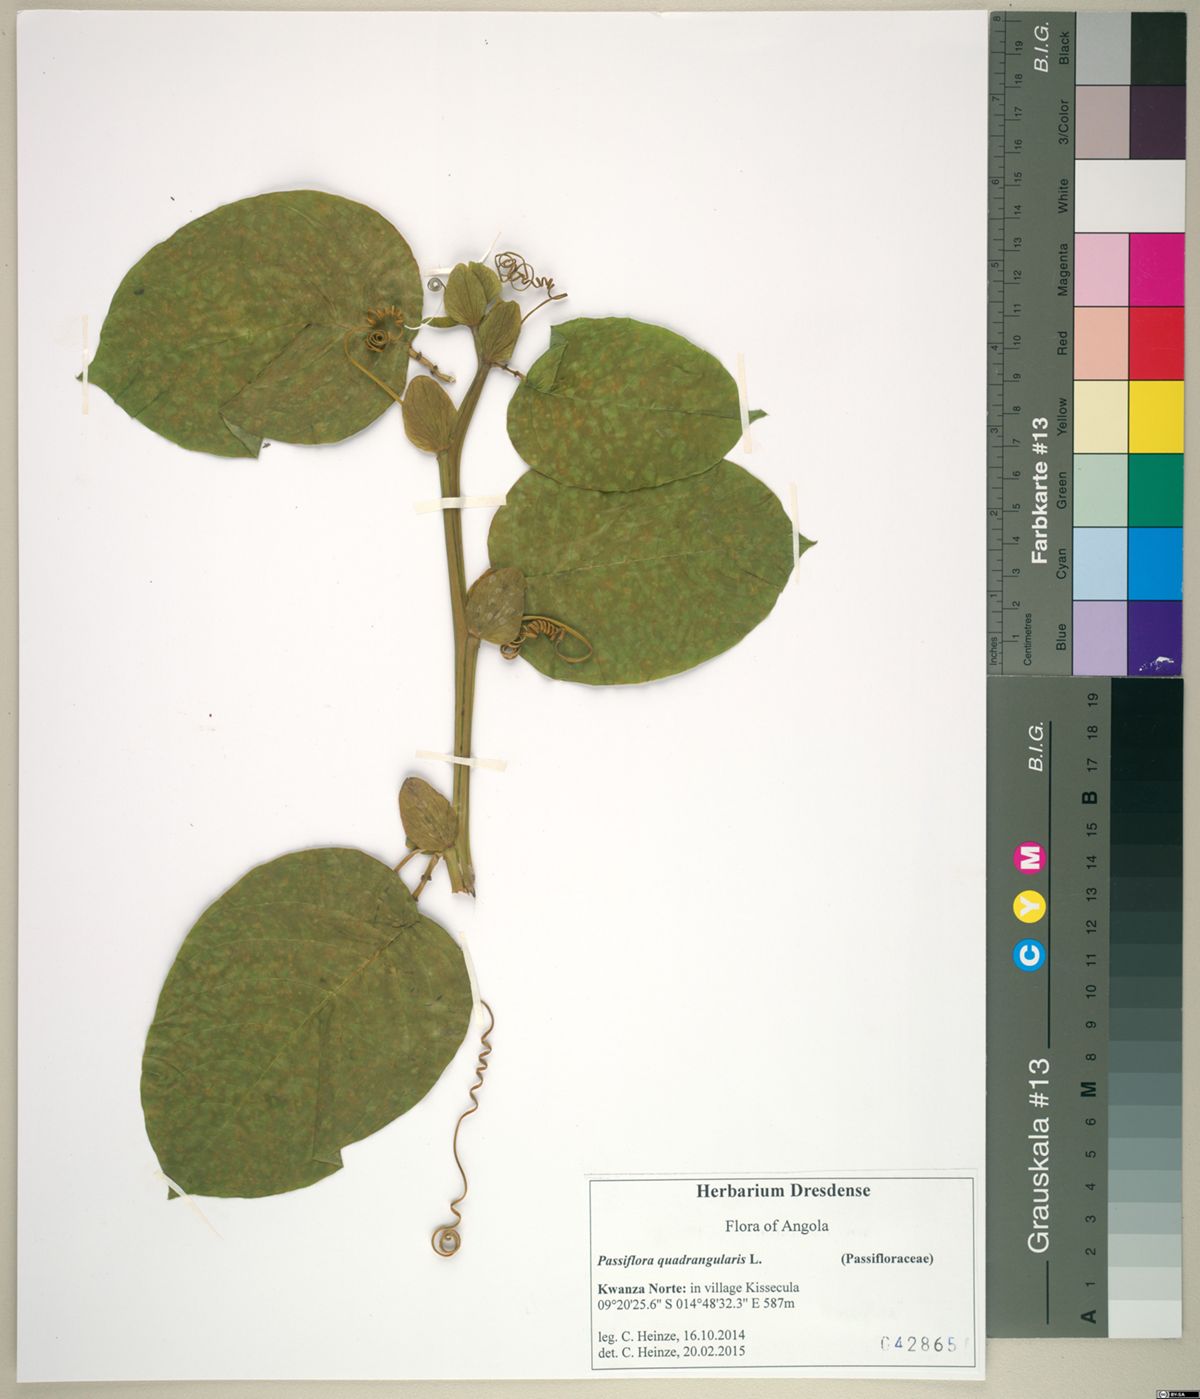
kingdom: Plantae
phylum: Tracheophyta
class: Magnoliopsida
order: Malpighiales
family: Passifloraceae
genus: Passiflora
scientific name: Passiflora quadrangularis
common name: Giant granadilla
